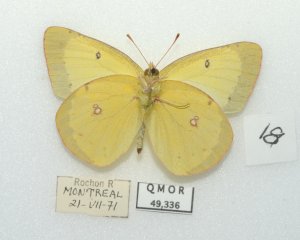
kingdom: Animalia
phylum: Arthropoda
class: Insecta
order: Lepidoptera
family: Pieridae
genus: Colias
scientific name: Colias philodice
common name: Clouded Sulphur
